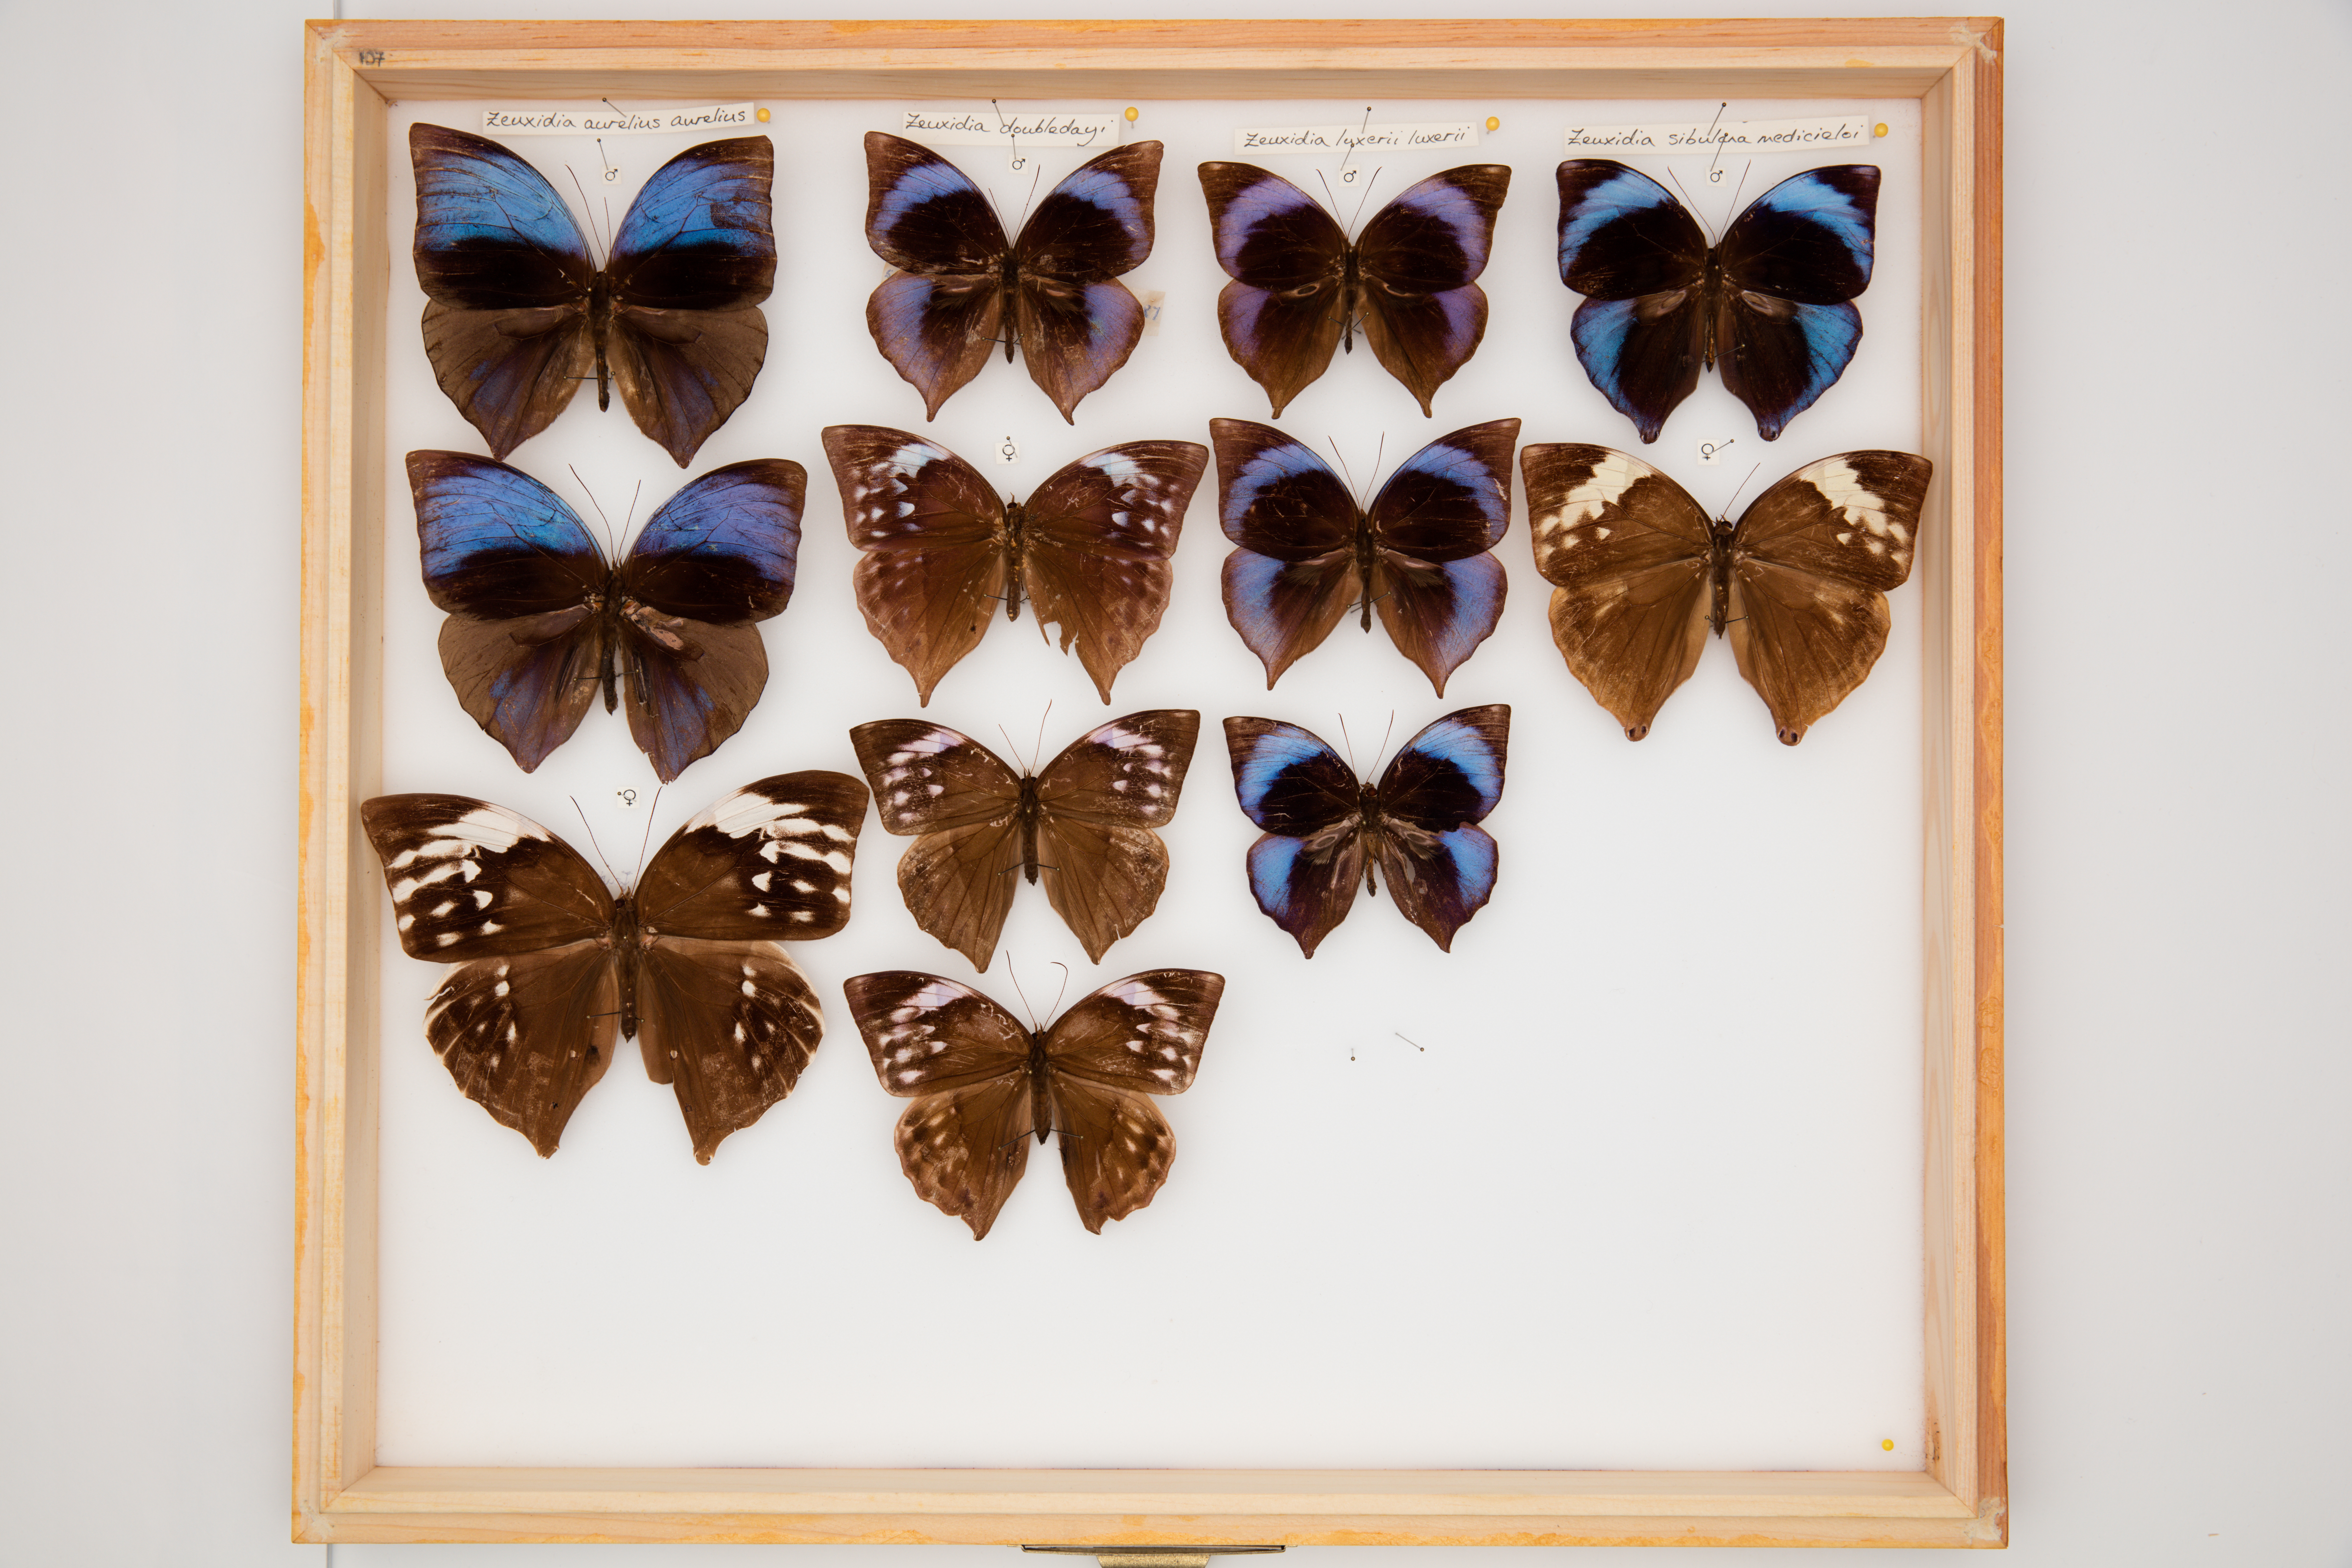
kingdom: Animalia
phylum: Arthropoda
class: Insecta
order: Lepidoptera
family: Nymphalidae
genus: Zeuxidia
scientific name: Zeuxidia doubledaii
